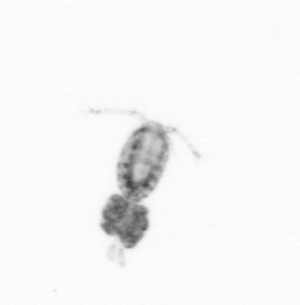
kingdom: Animalia
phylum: Arthropoda
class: Copepoda
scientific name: Copepoda
